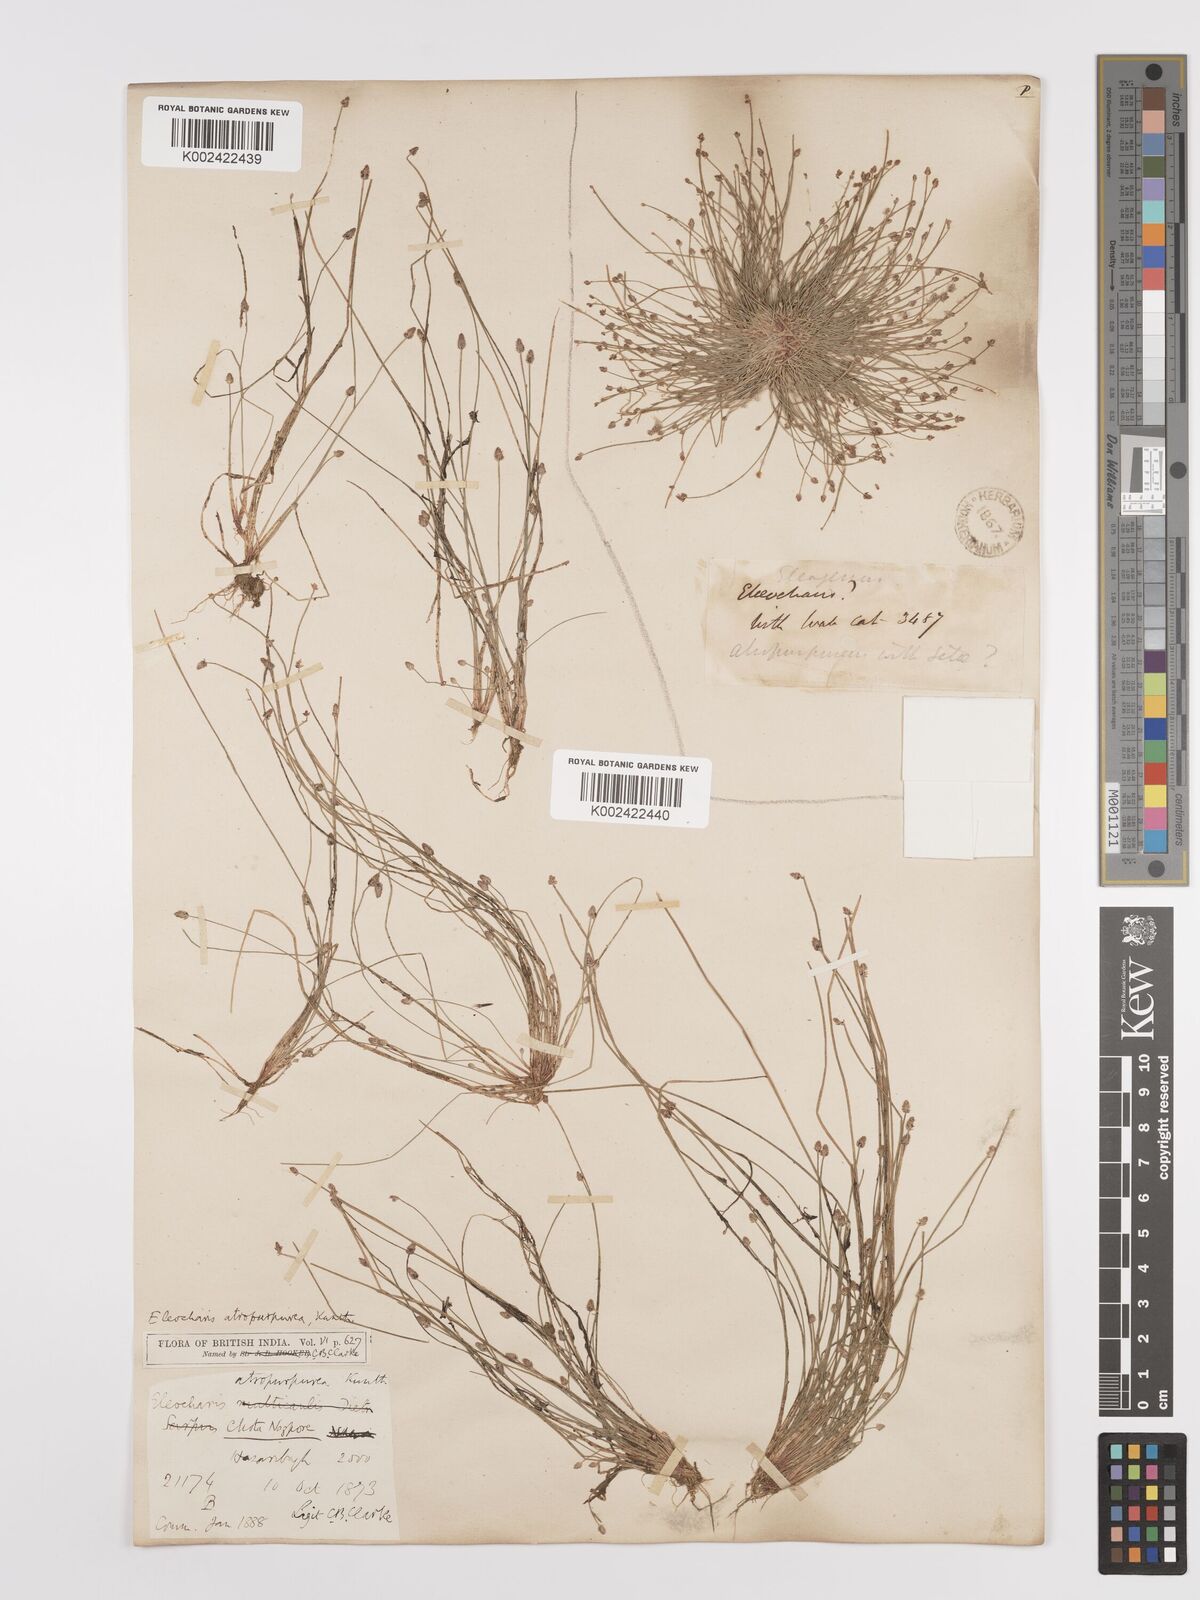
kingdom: Plantae
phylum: Tracheophyta
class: Liliopsida
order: Poales
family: Cyperaceae
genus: Eleocharis
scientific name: Eleocharis atropurpurea
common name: Purple spikerush
